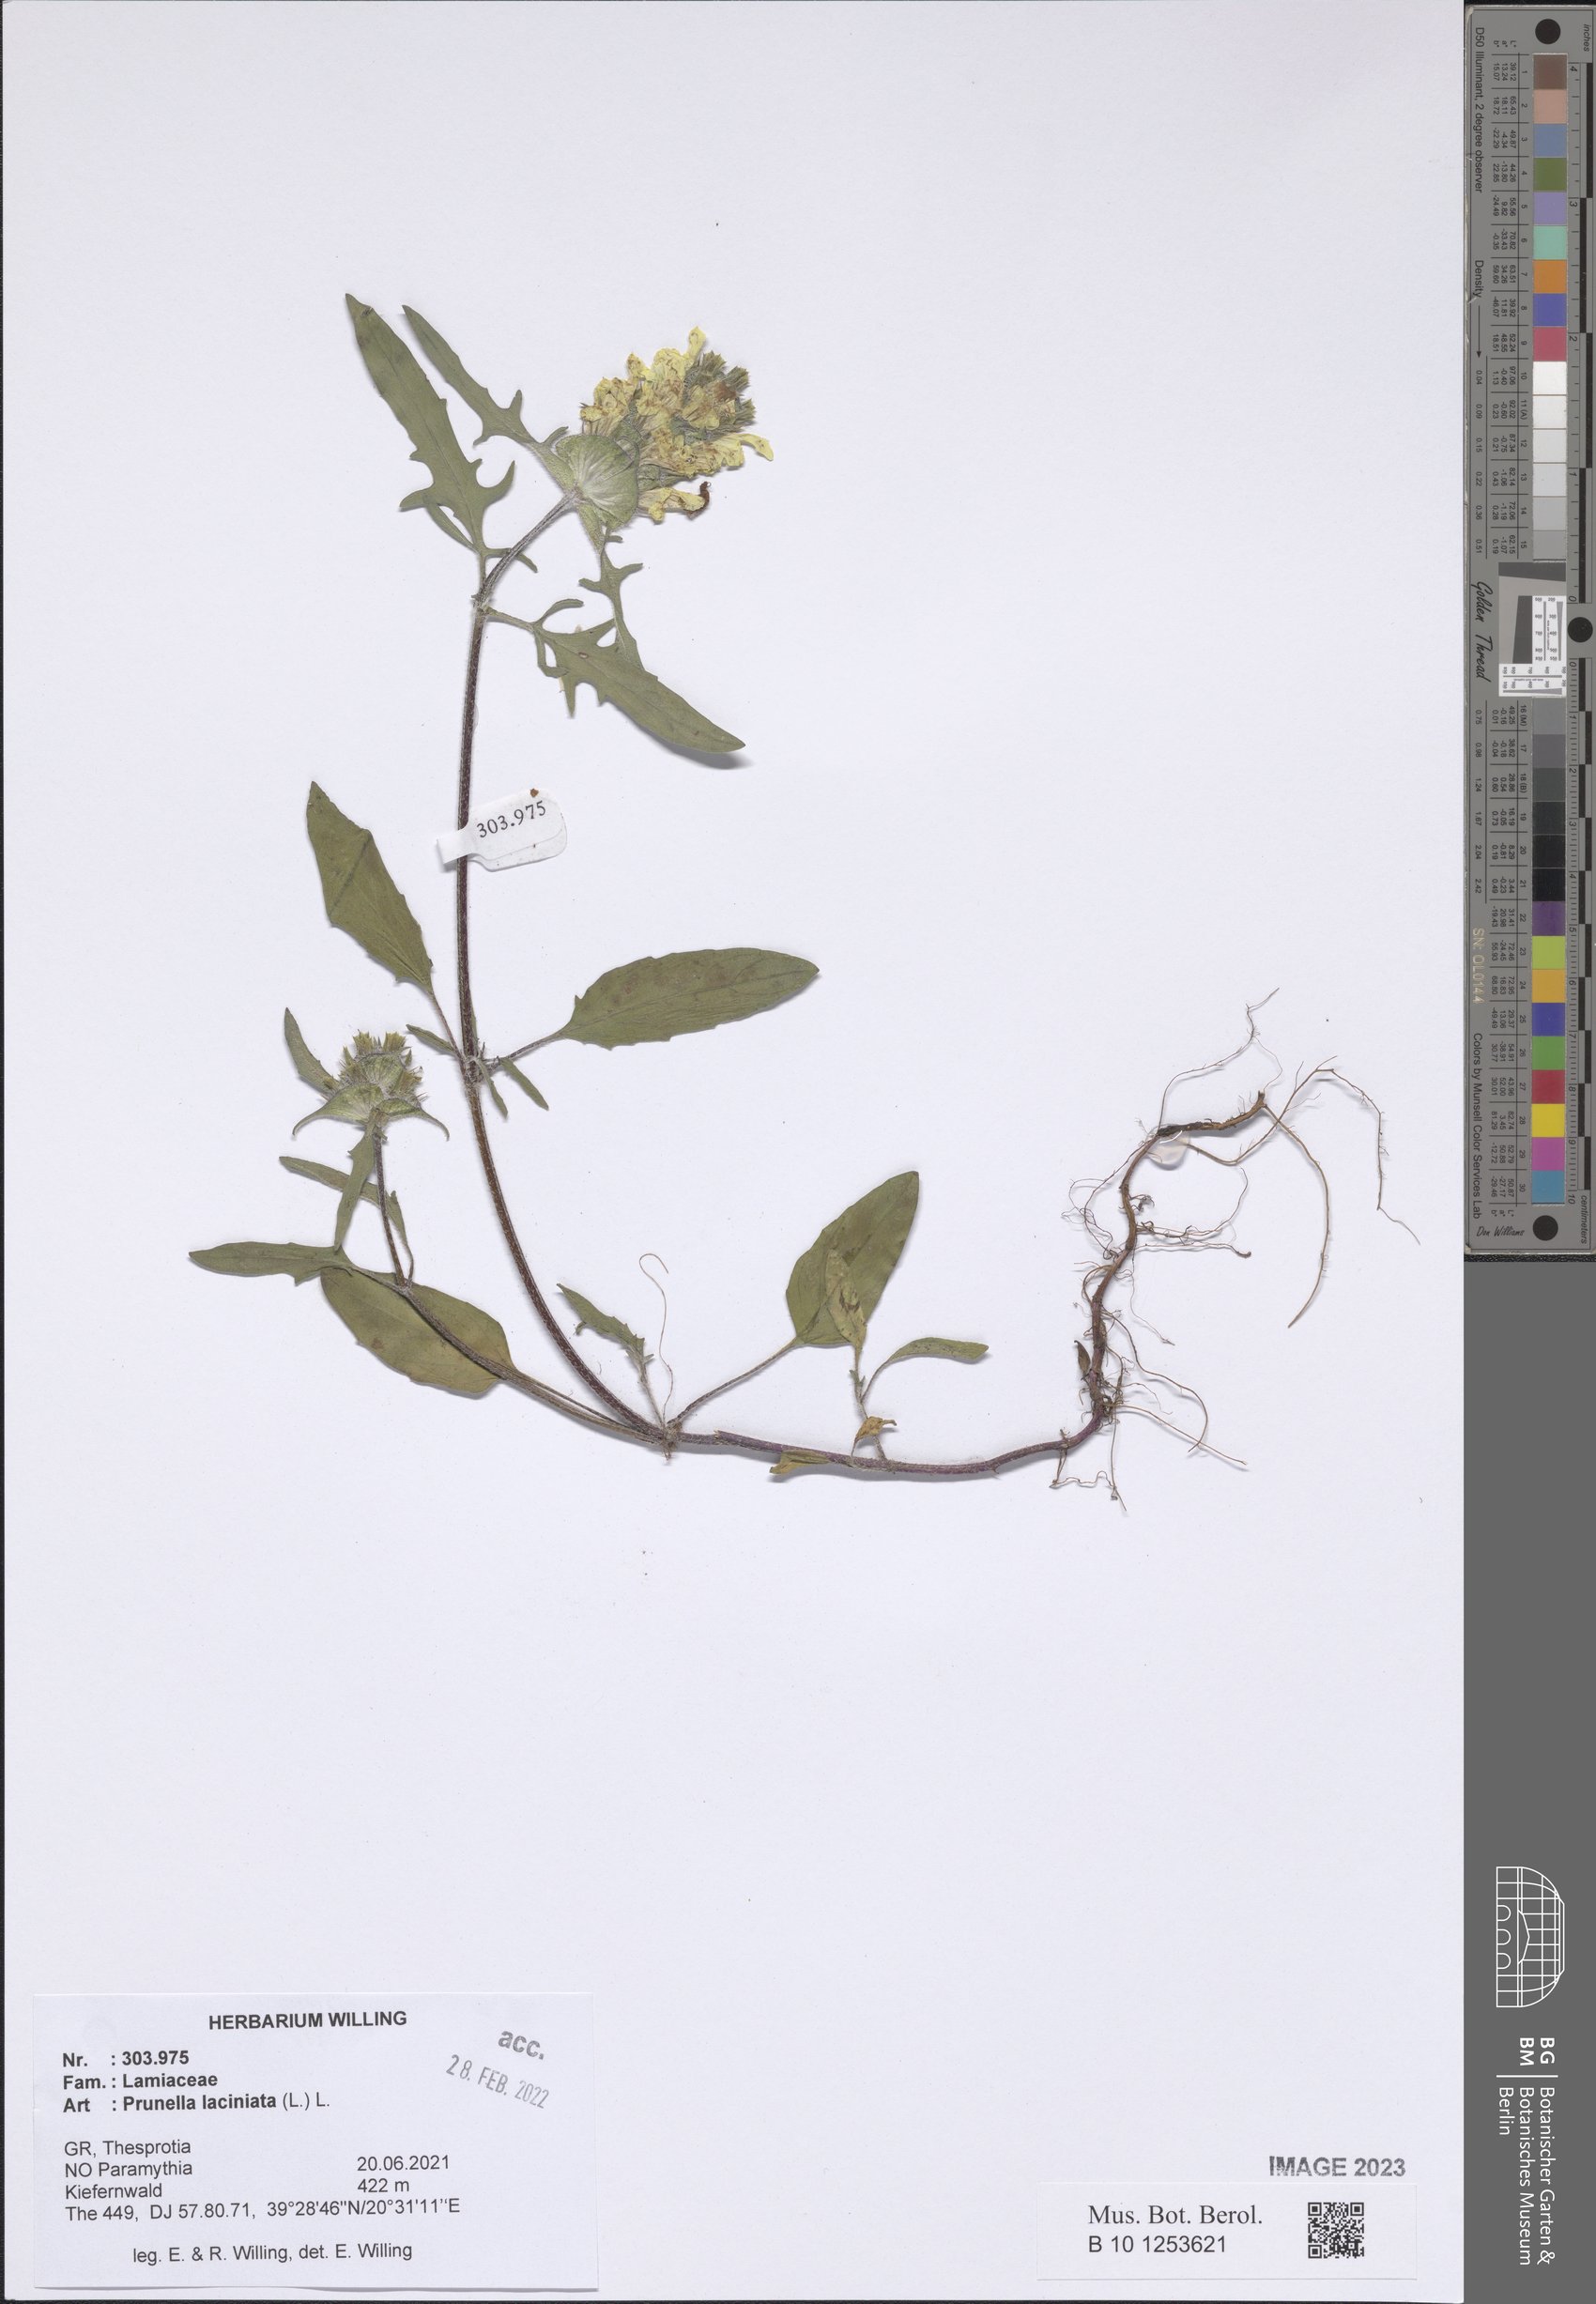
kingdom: Plantae
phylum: Tracheophyta
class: Magnoliopsida
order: Lamiales
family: Lamiaceae
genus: Prunella
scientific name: Prunella laciniata
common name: Cut-leaved selfheal
